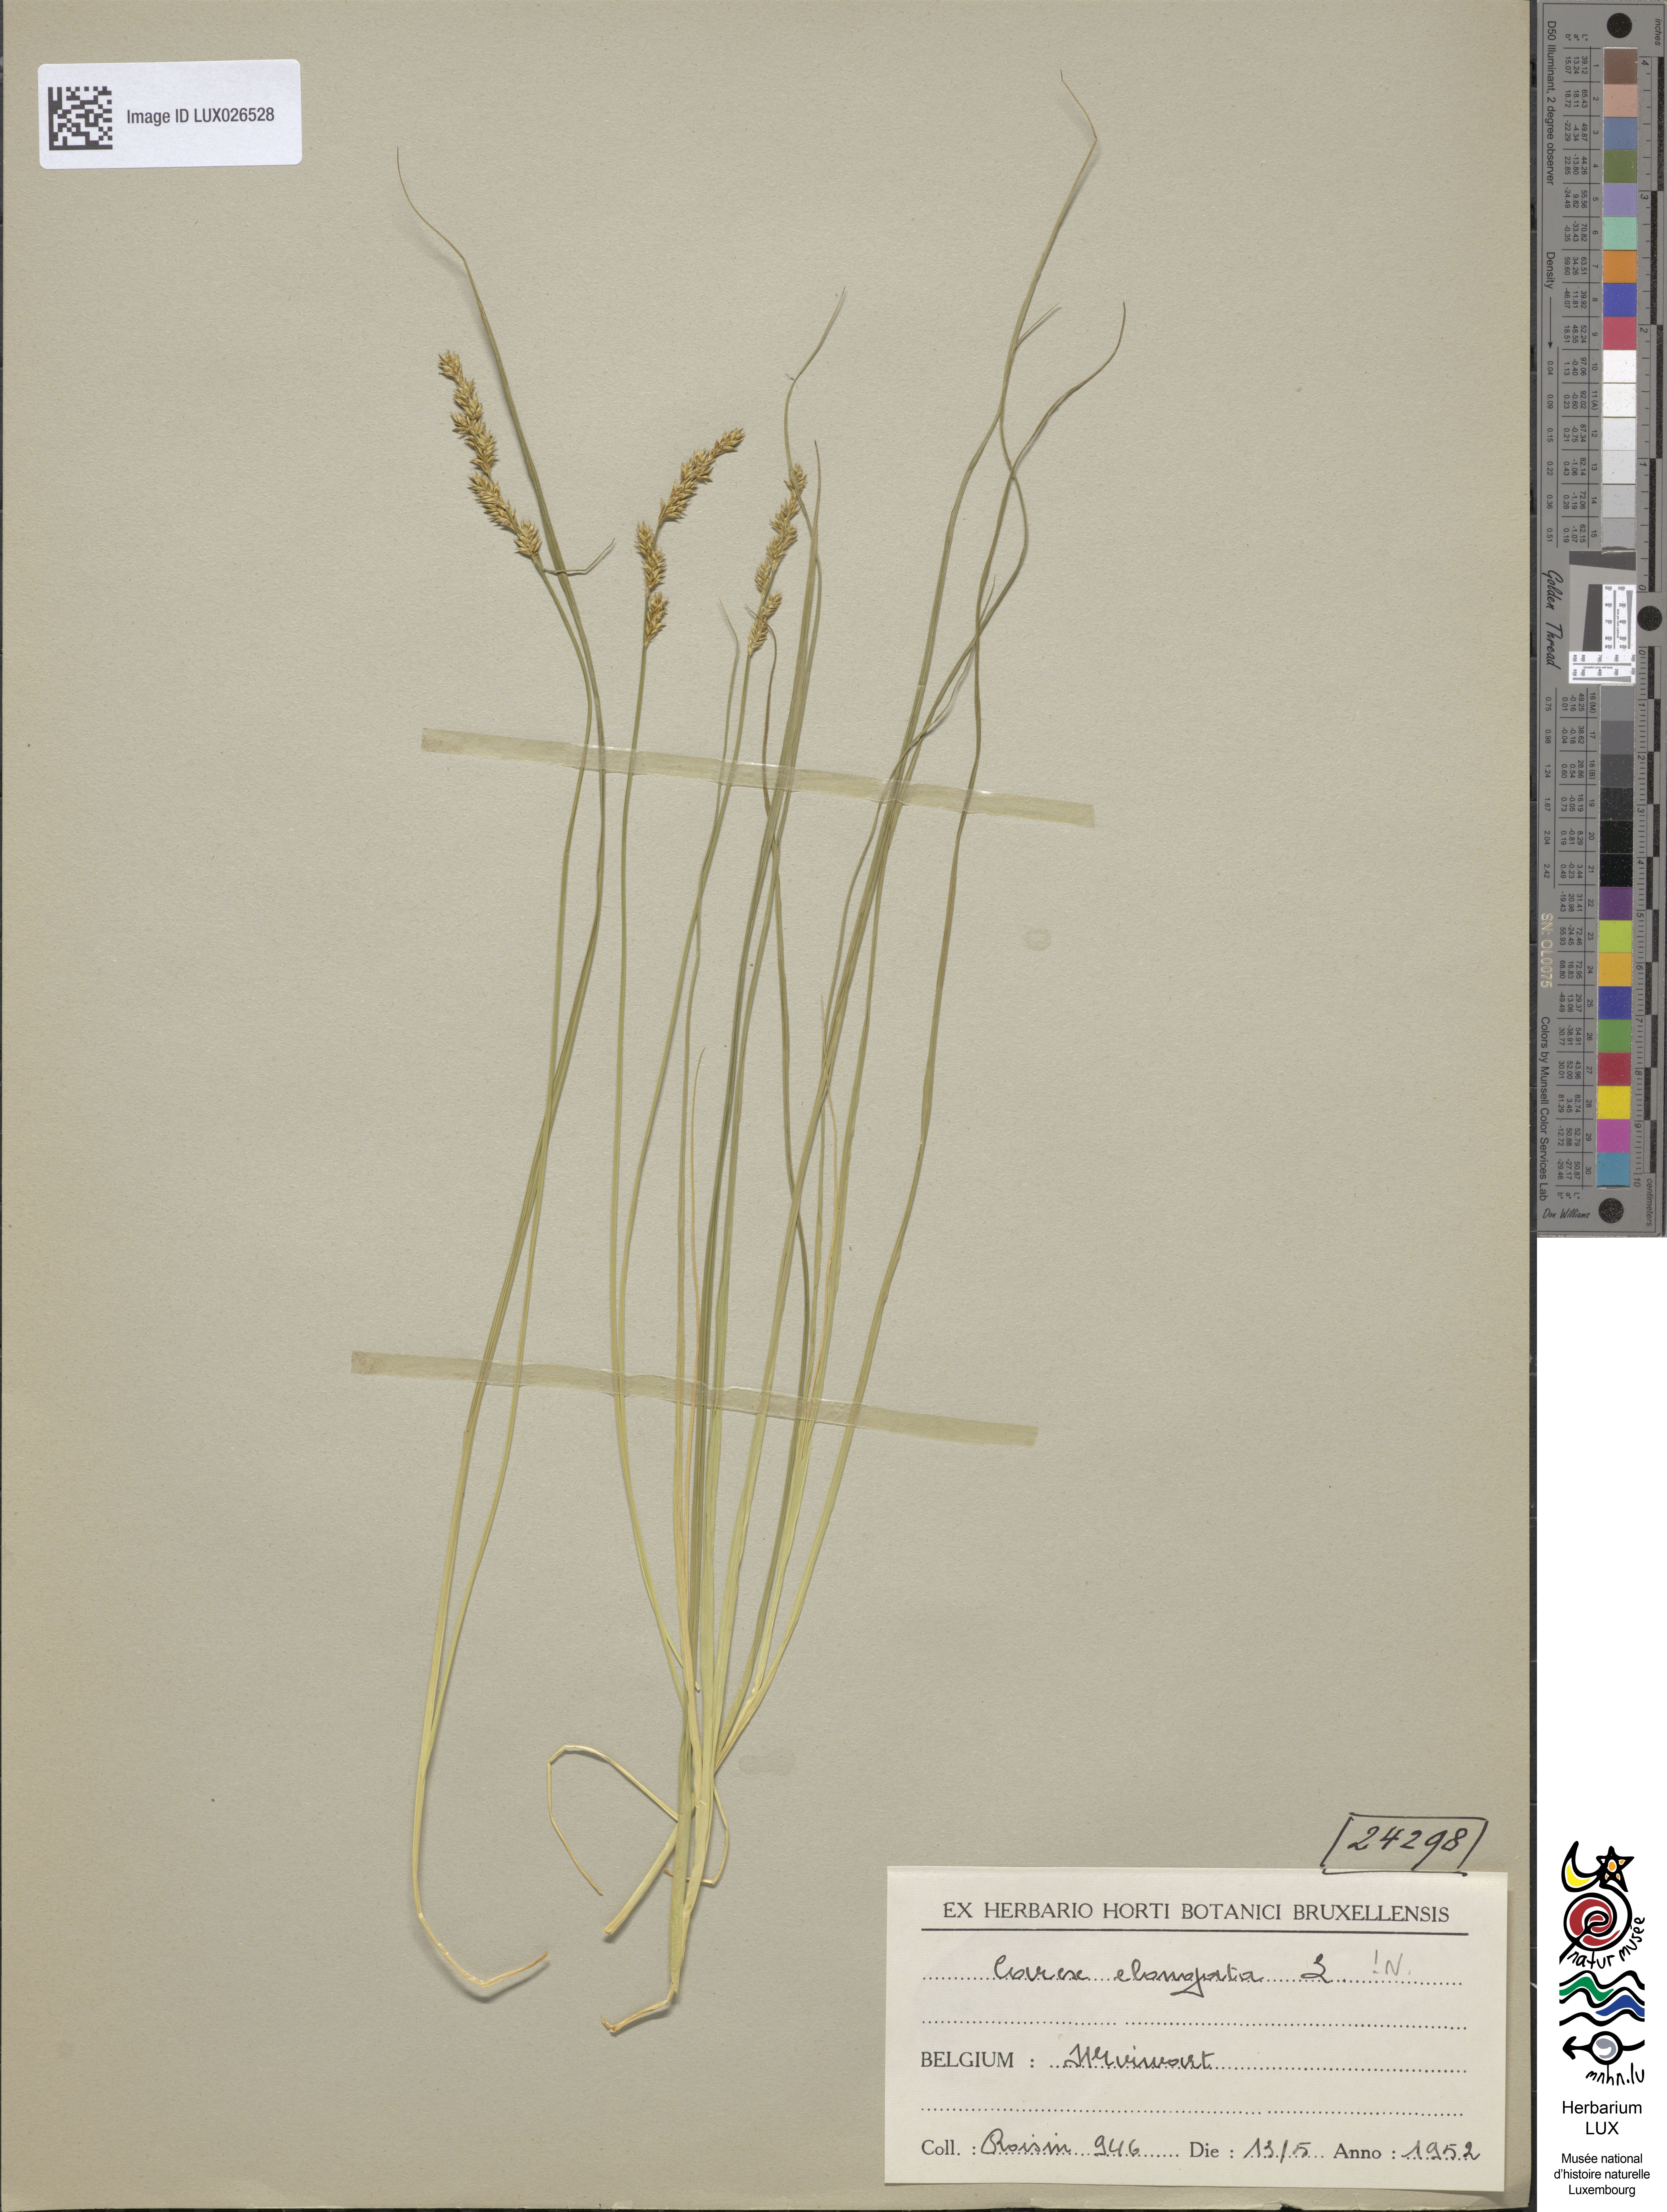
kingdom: Plantae
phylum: Tracheophyta
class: Liliopsida
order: Poales
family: Cyperaceae
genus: Carex
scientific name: Carex elongata
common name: Elongated sedge
